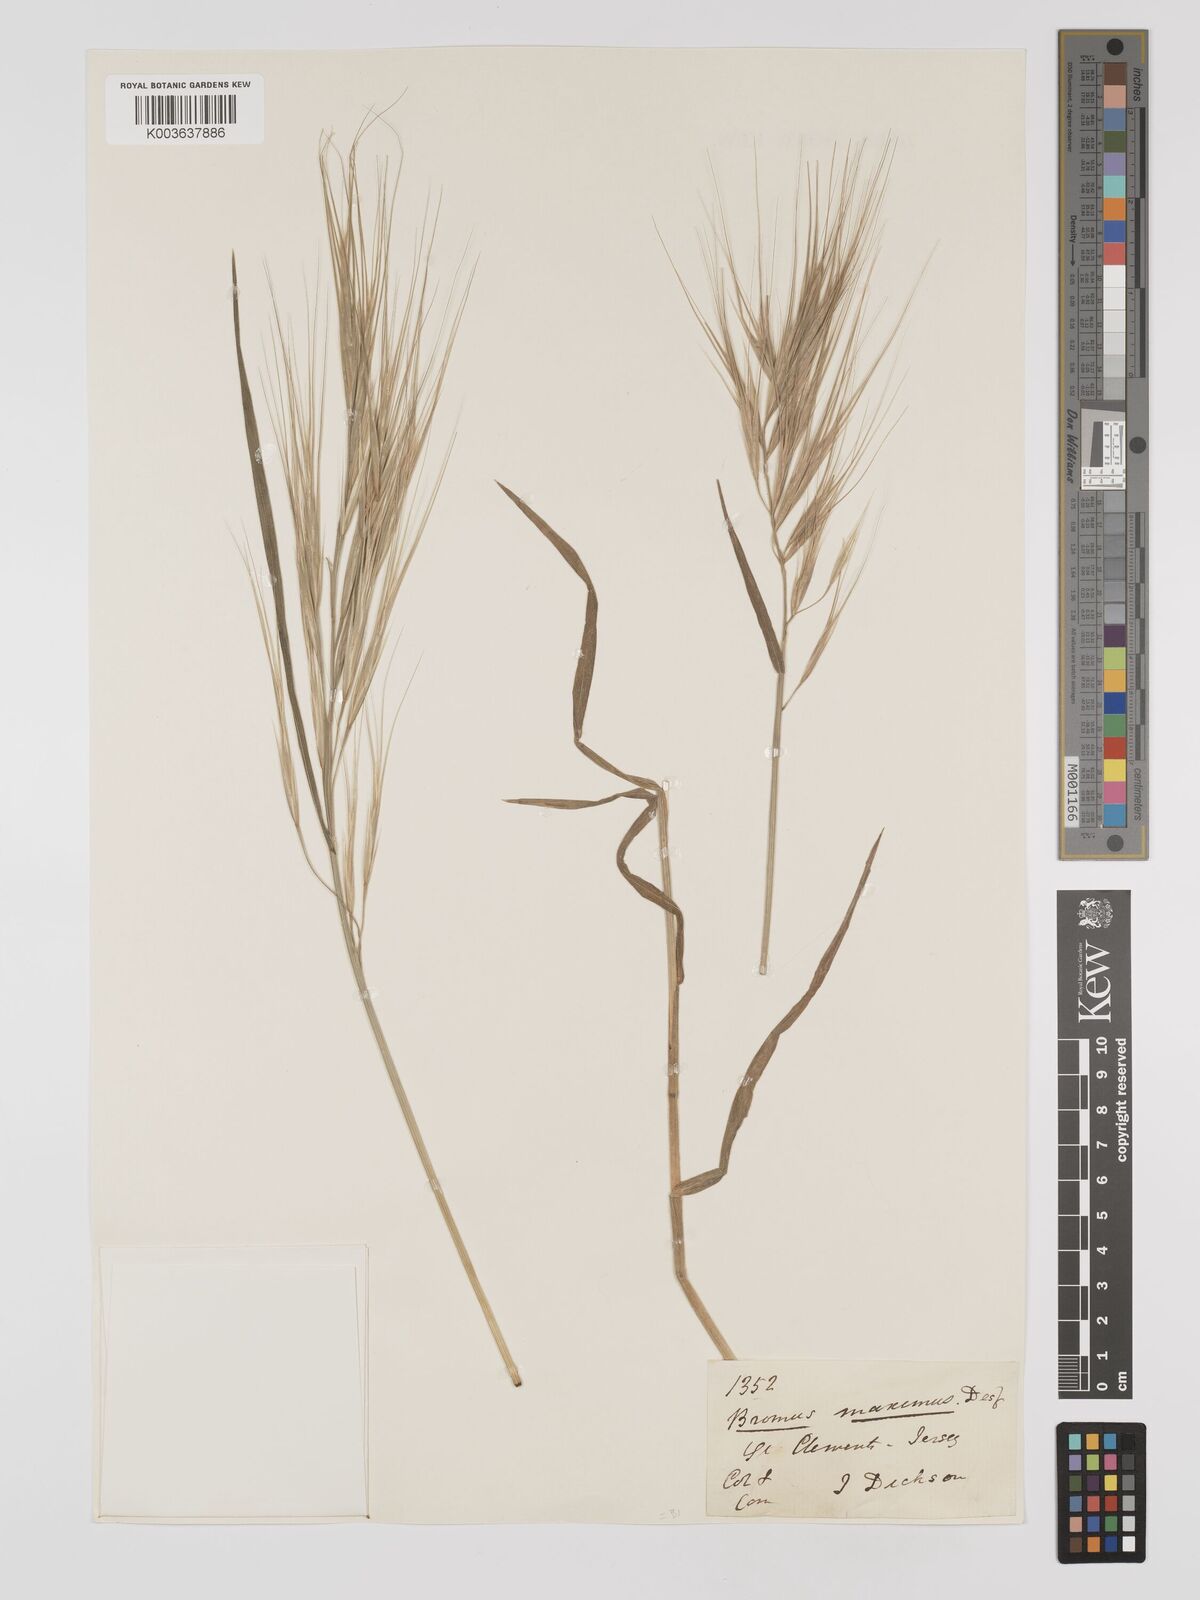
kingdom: Plantae
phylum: Tracheophyta
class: Liliopsida
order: Poales
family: Poaceae
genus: Bromus
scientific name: Bromus
